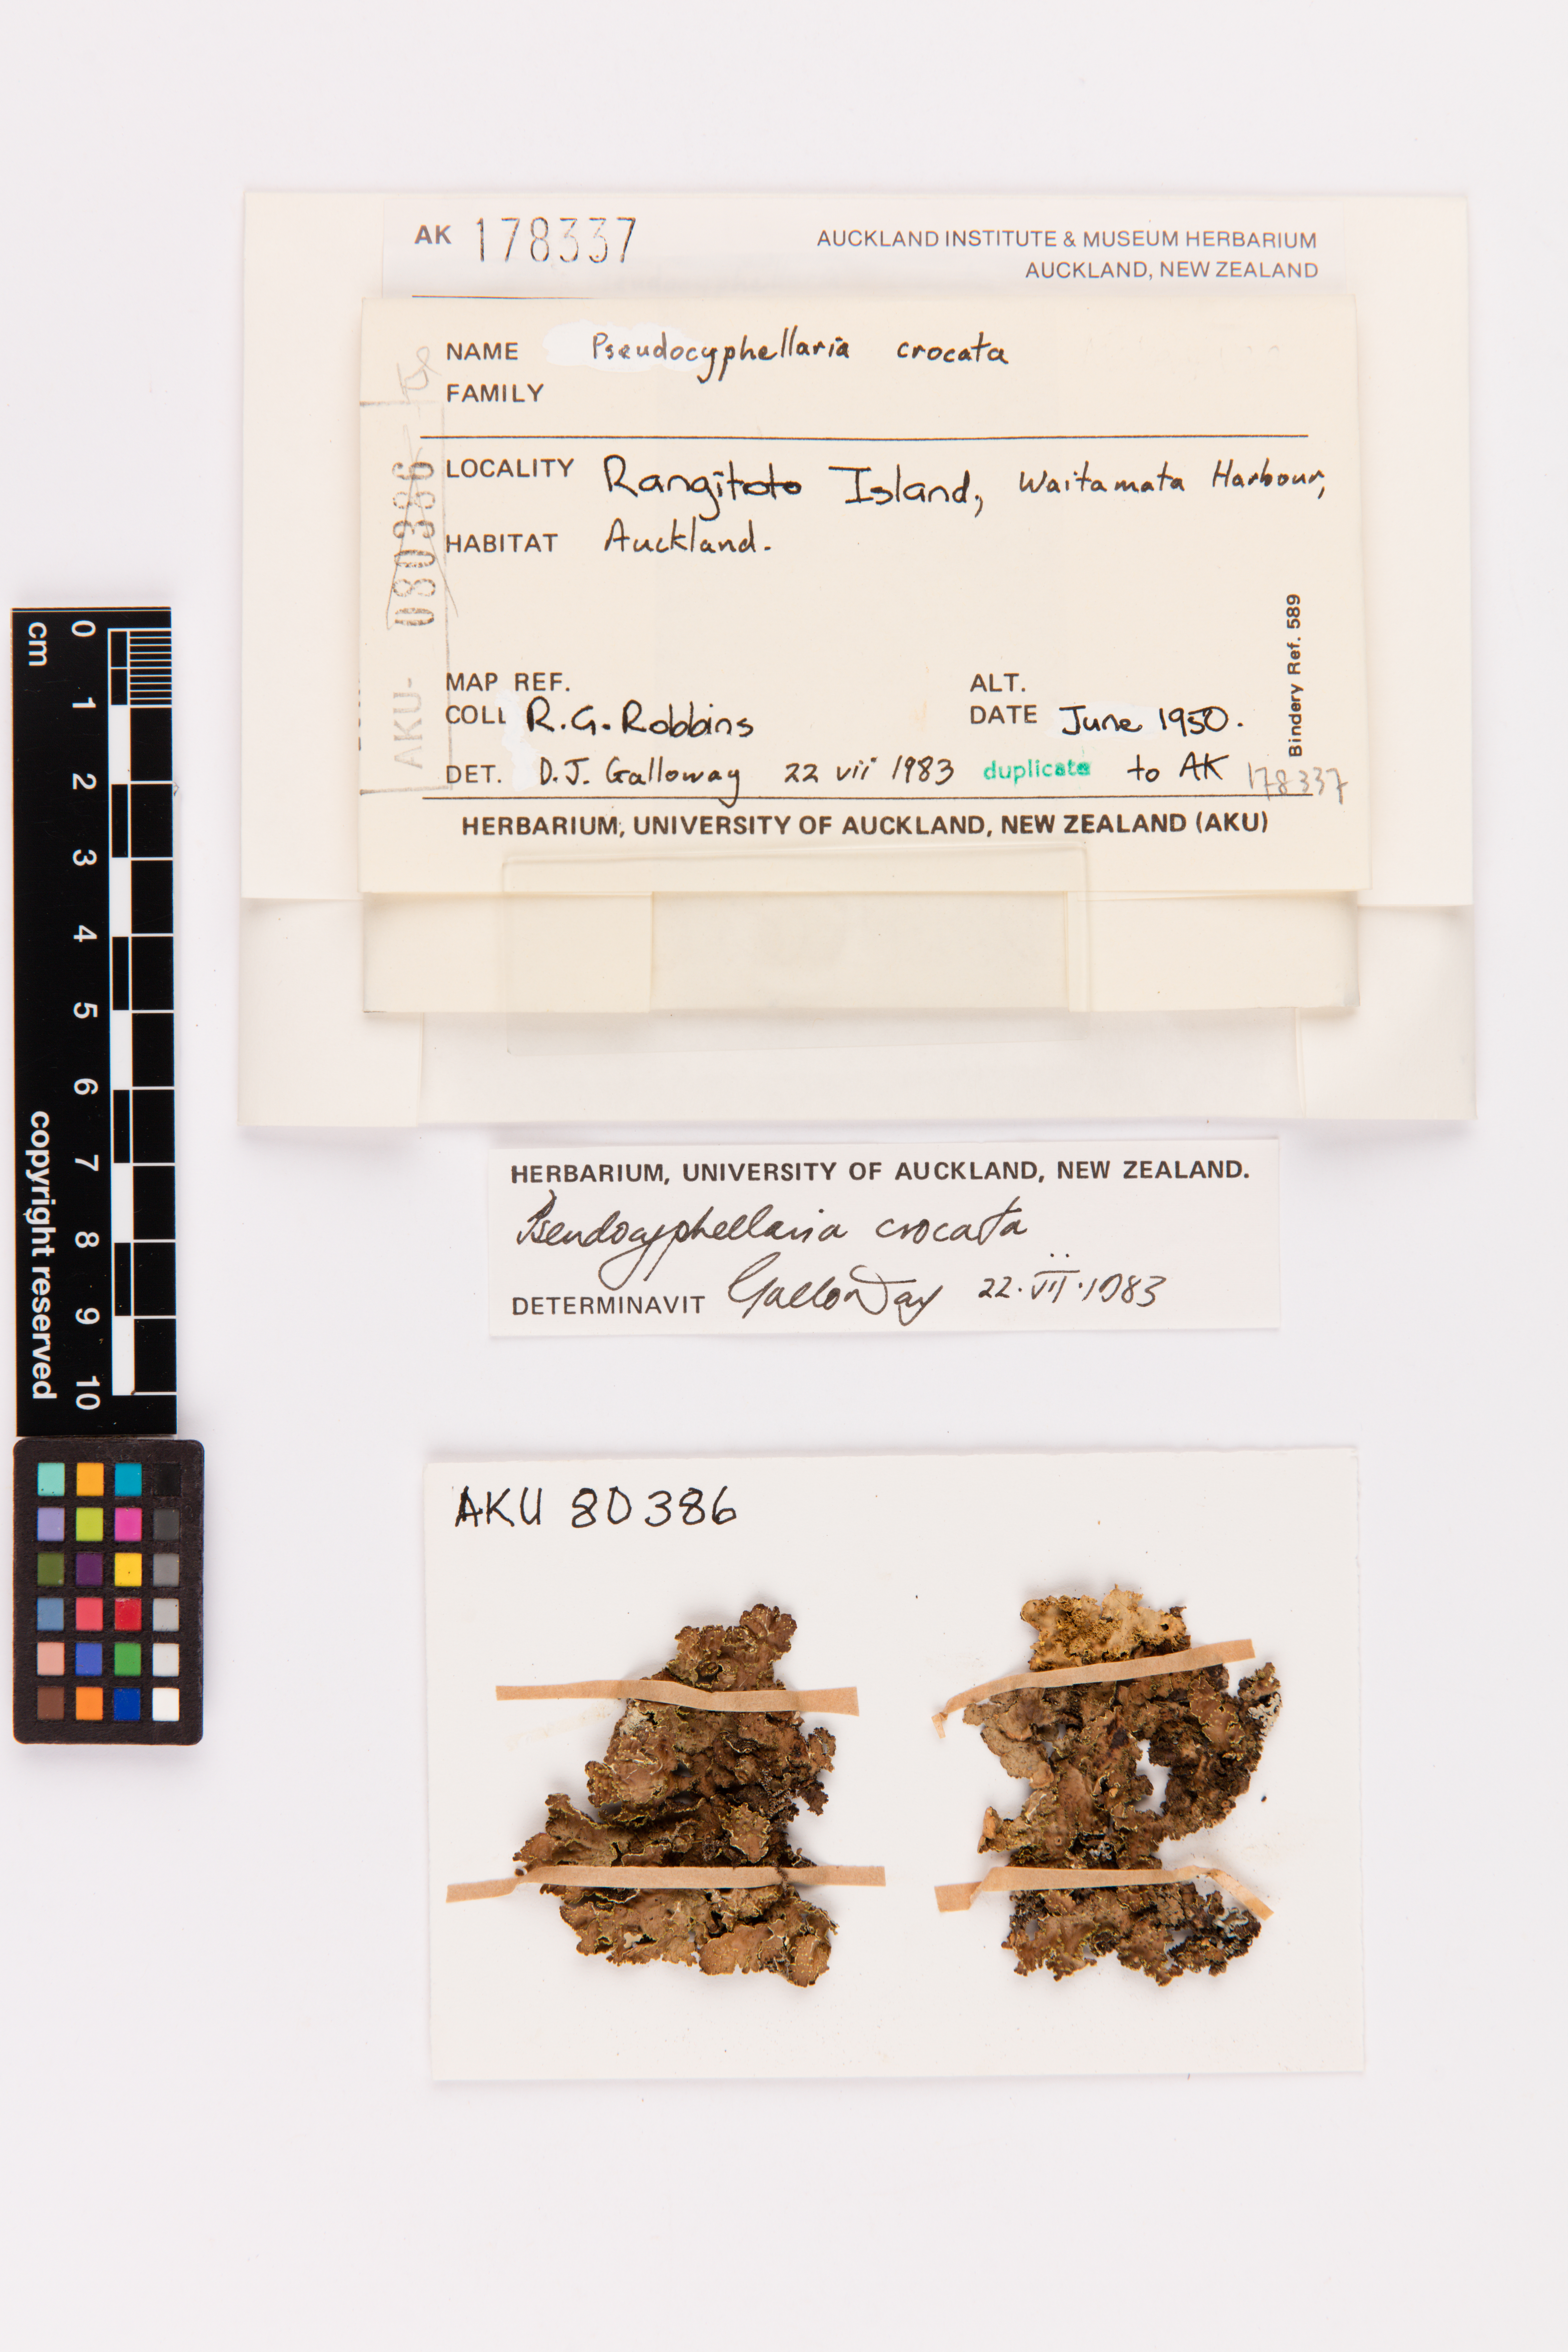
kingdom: Fungi
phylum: Ascomycota
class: Lecanoromycetes
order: Peltigerales
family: Lobariaceae
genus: Pseudocyphellaria
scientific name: Pseudocyphellaria crocata
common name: Golden specklebelly
